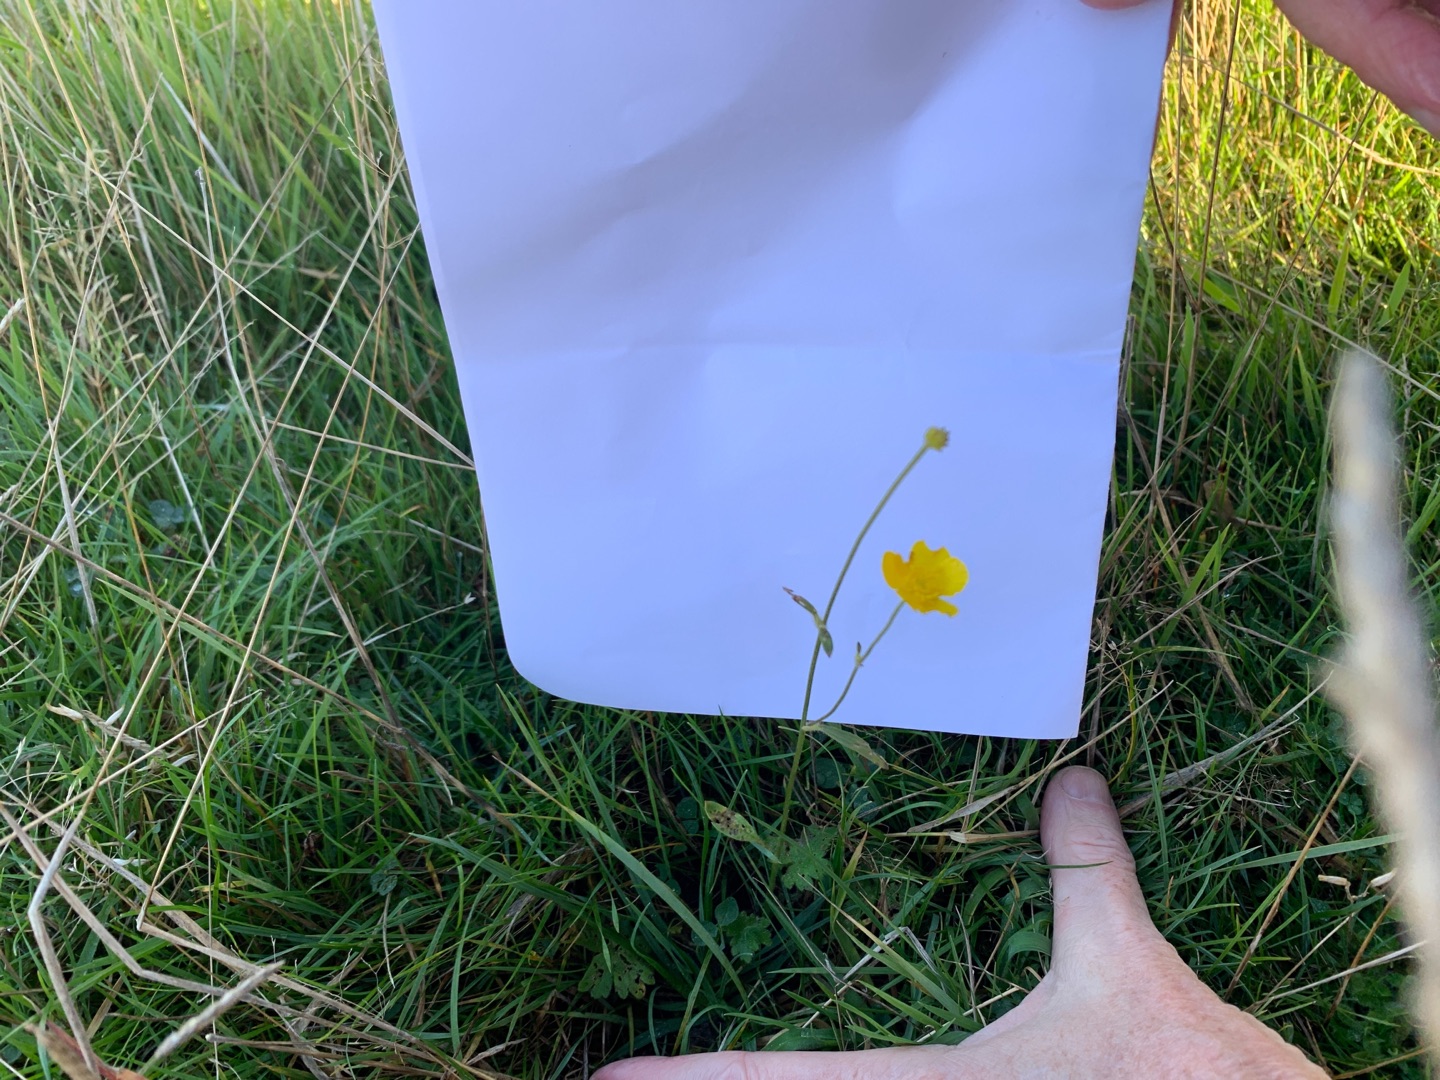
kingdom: Plantae
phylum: Tracheophyta
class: Magnoliopsida
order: Ranunculales
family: Ranunculaceae
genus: Ranunculus
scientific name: Ranunculus acris
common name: Bidende ranunkel
